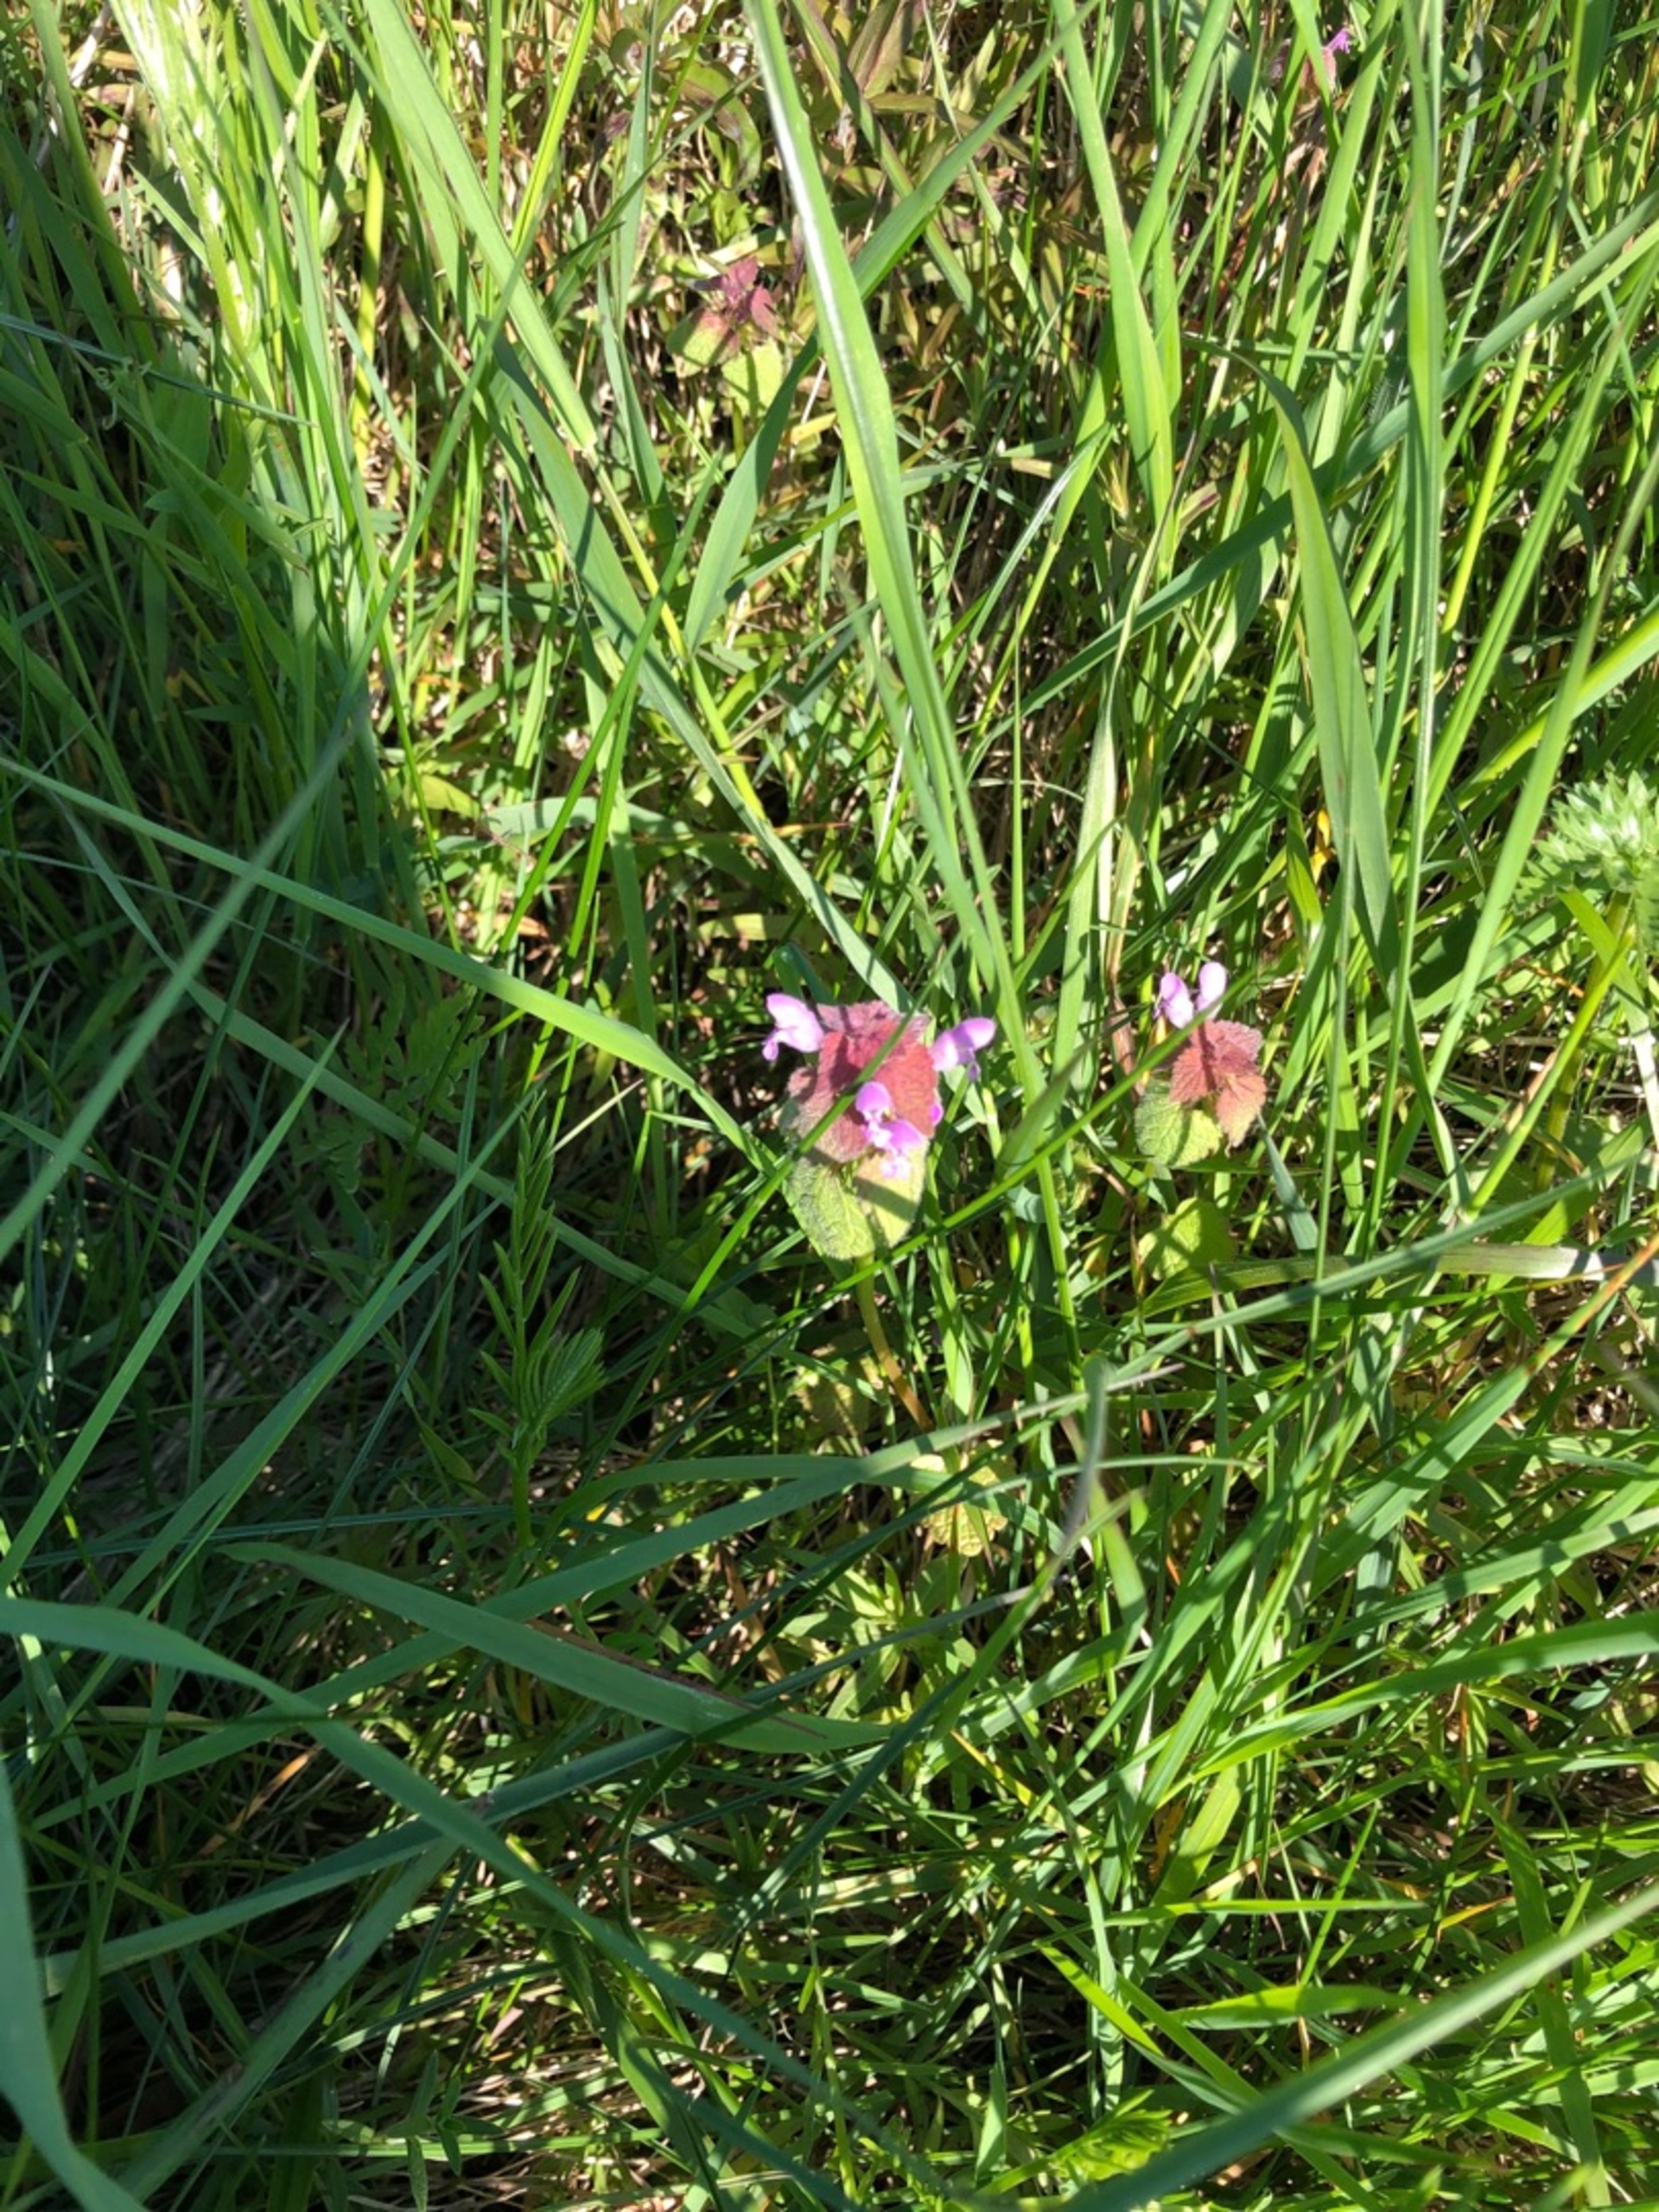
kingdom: Plantae
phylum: Tracheophyta
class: Magnoliopsida
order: Lamiales
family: Lamiaceae
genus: Lamium
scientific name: Lamium purpureum
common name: Rød tvetand
